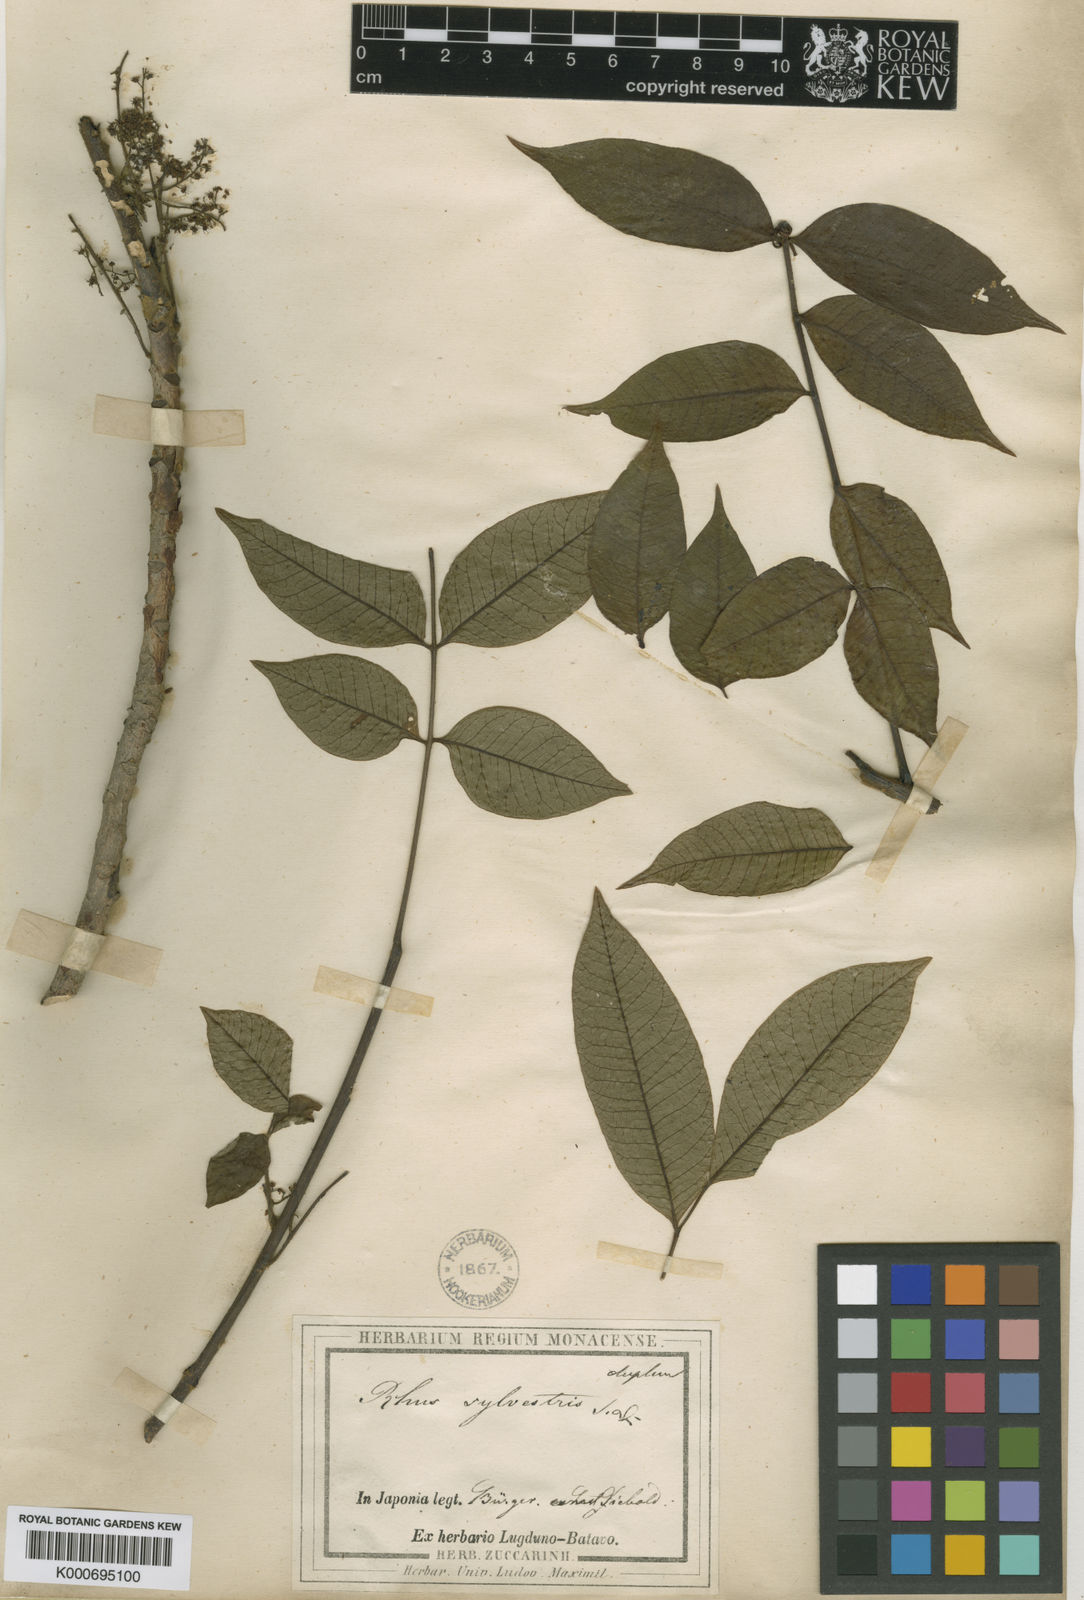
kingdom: Plantae
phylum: Tracheophyta
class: Magnoliopsida
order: Sapindales
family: Anacardiaceae
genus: Toxicodendron
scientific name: Toxicodendron sylvestre
